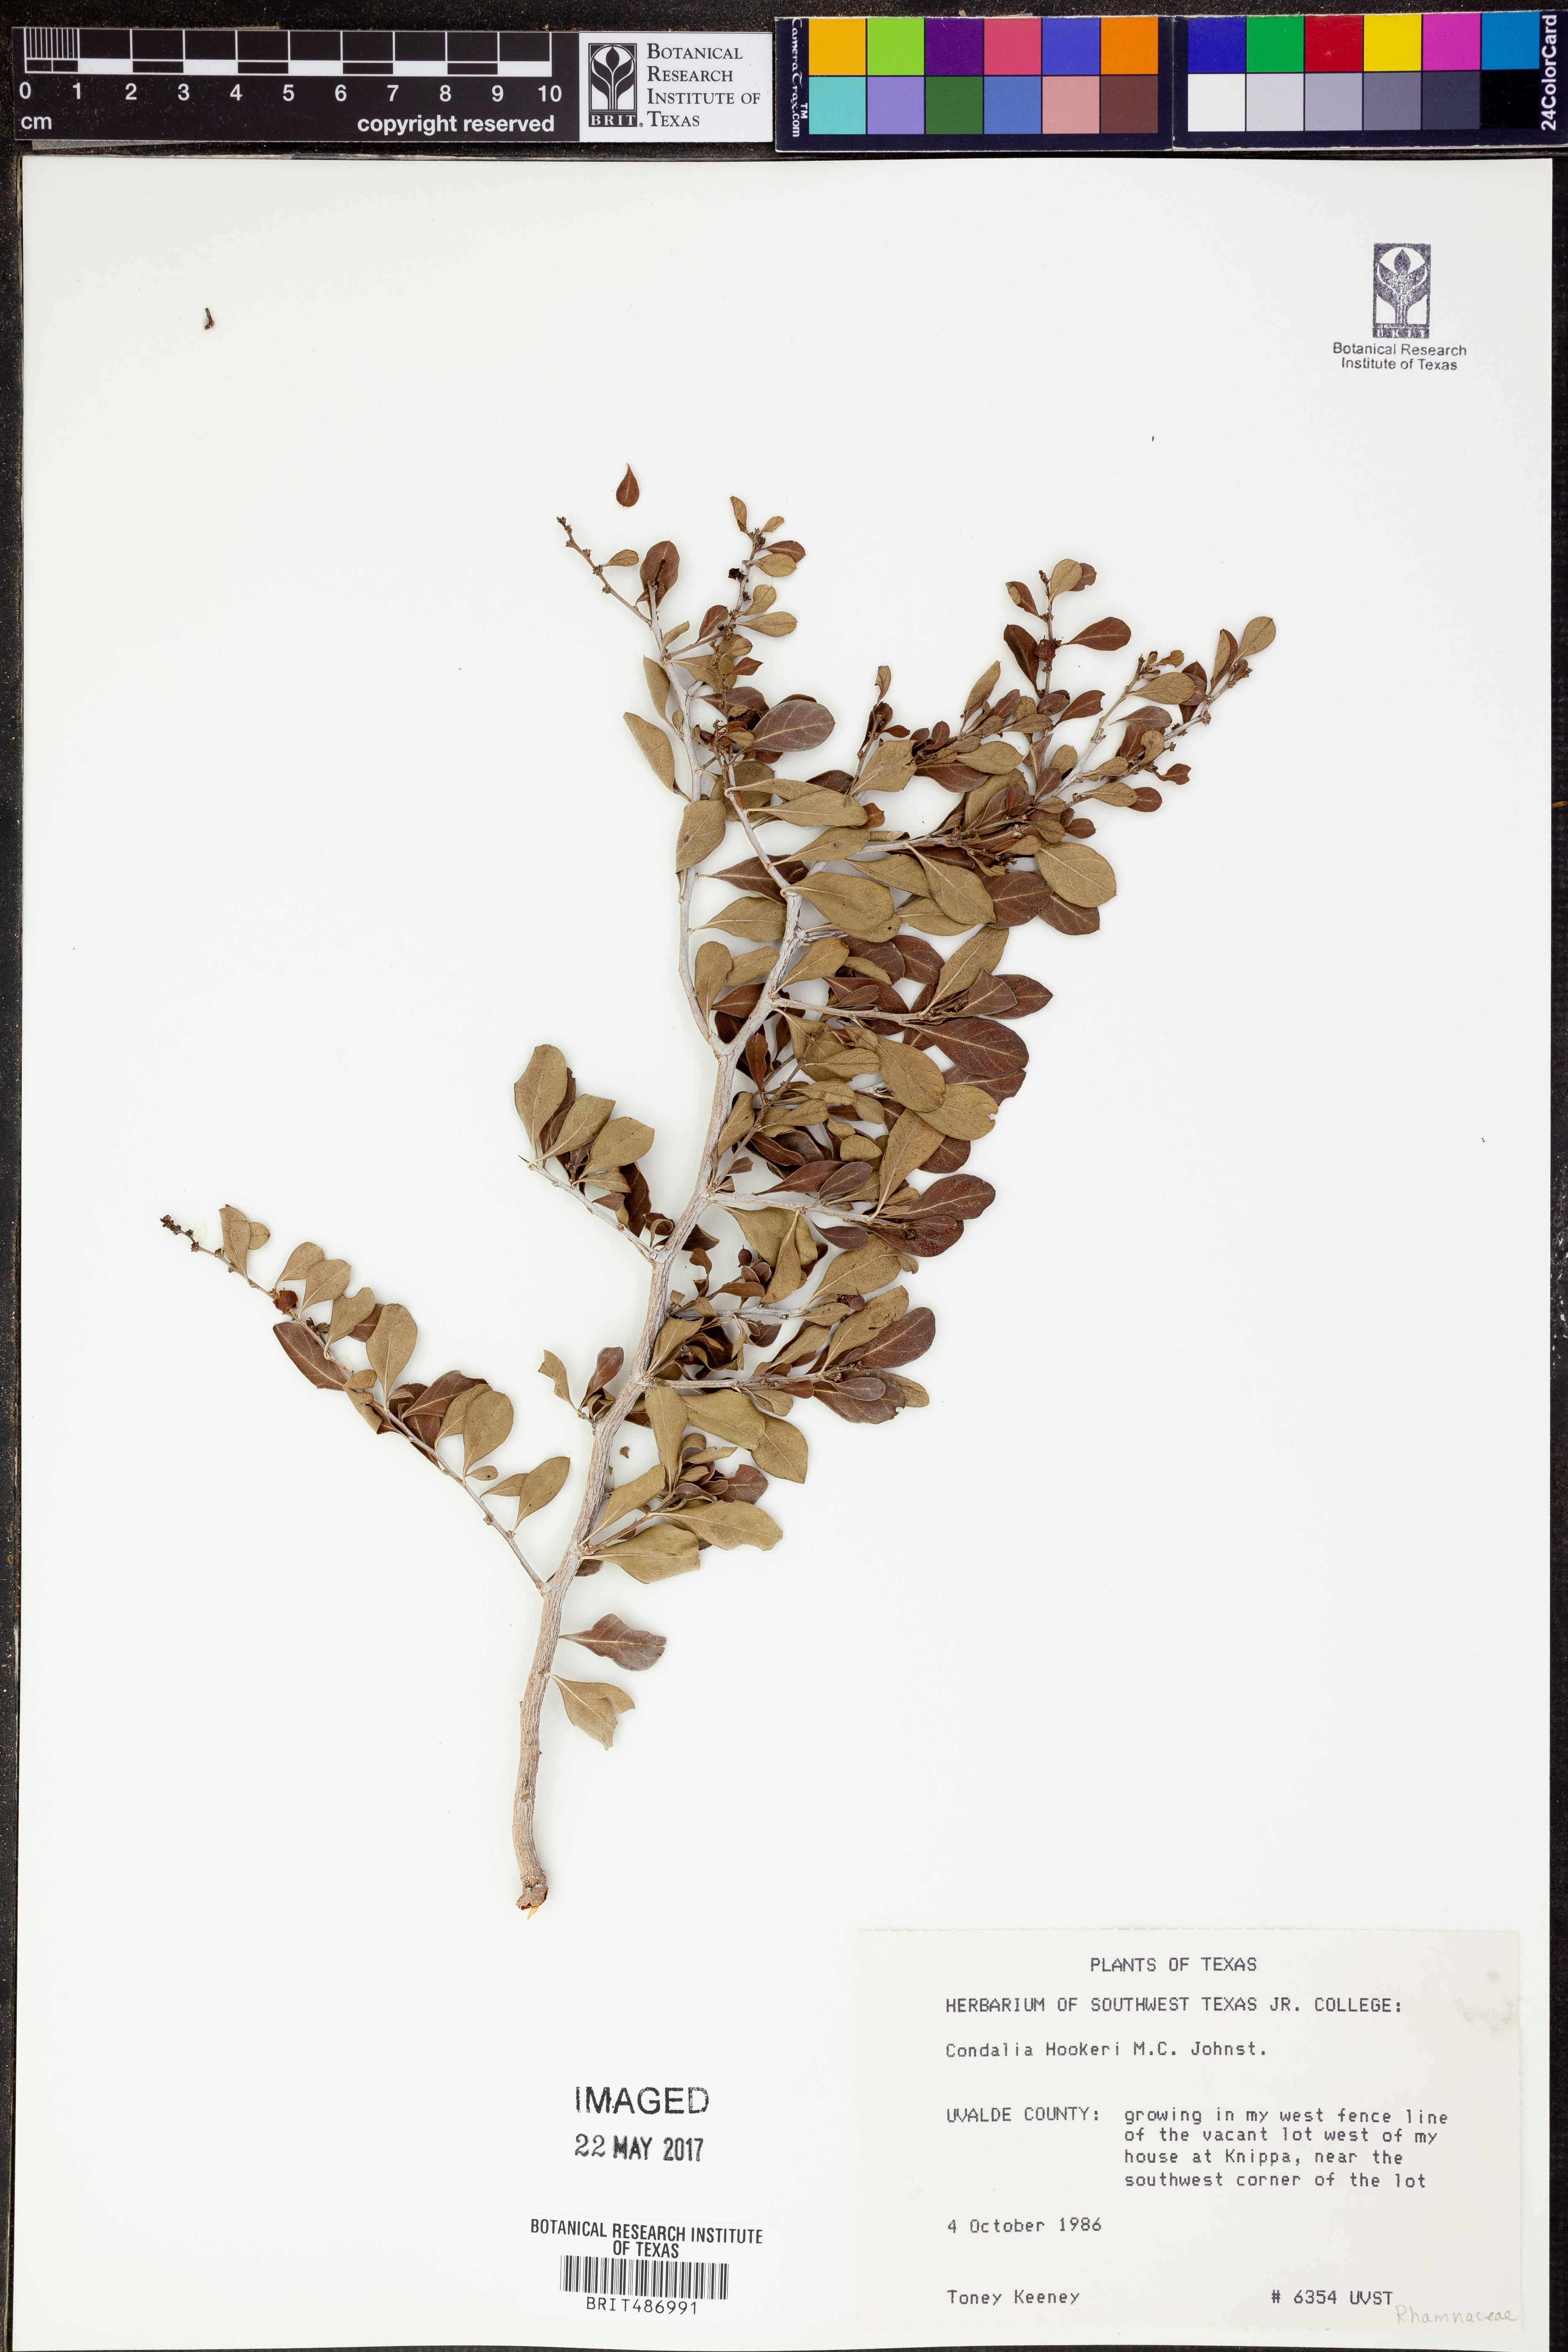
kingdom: Plantae
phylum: Tracheophyta
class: Magnoliopsida
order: Rosales
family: Rhamnaceae
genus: Condalia
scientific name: Condalia hookeri
